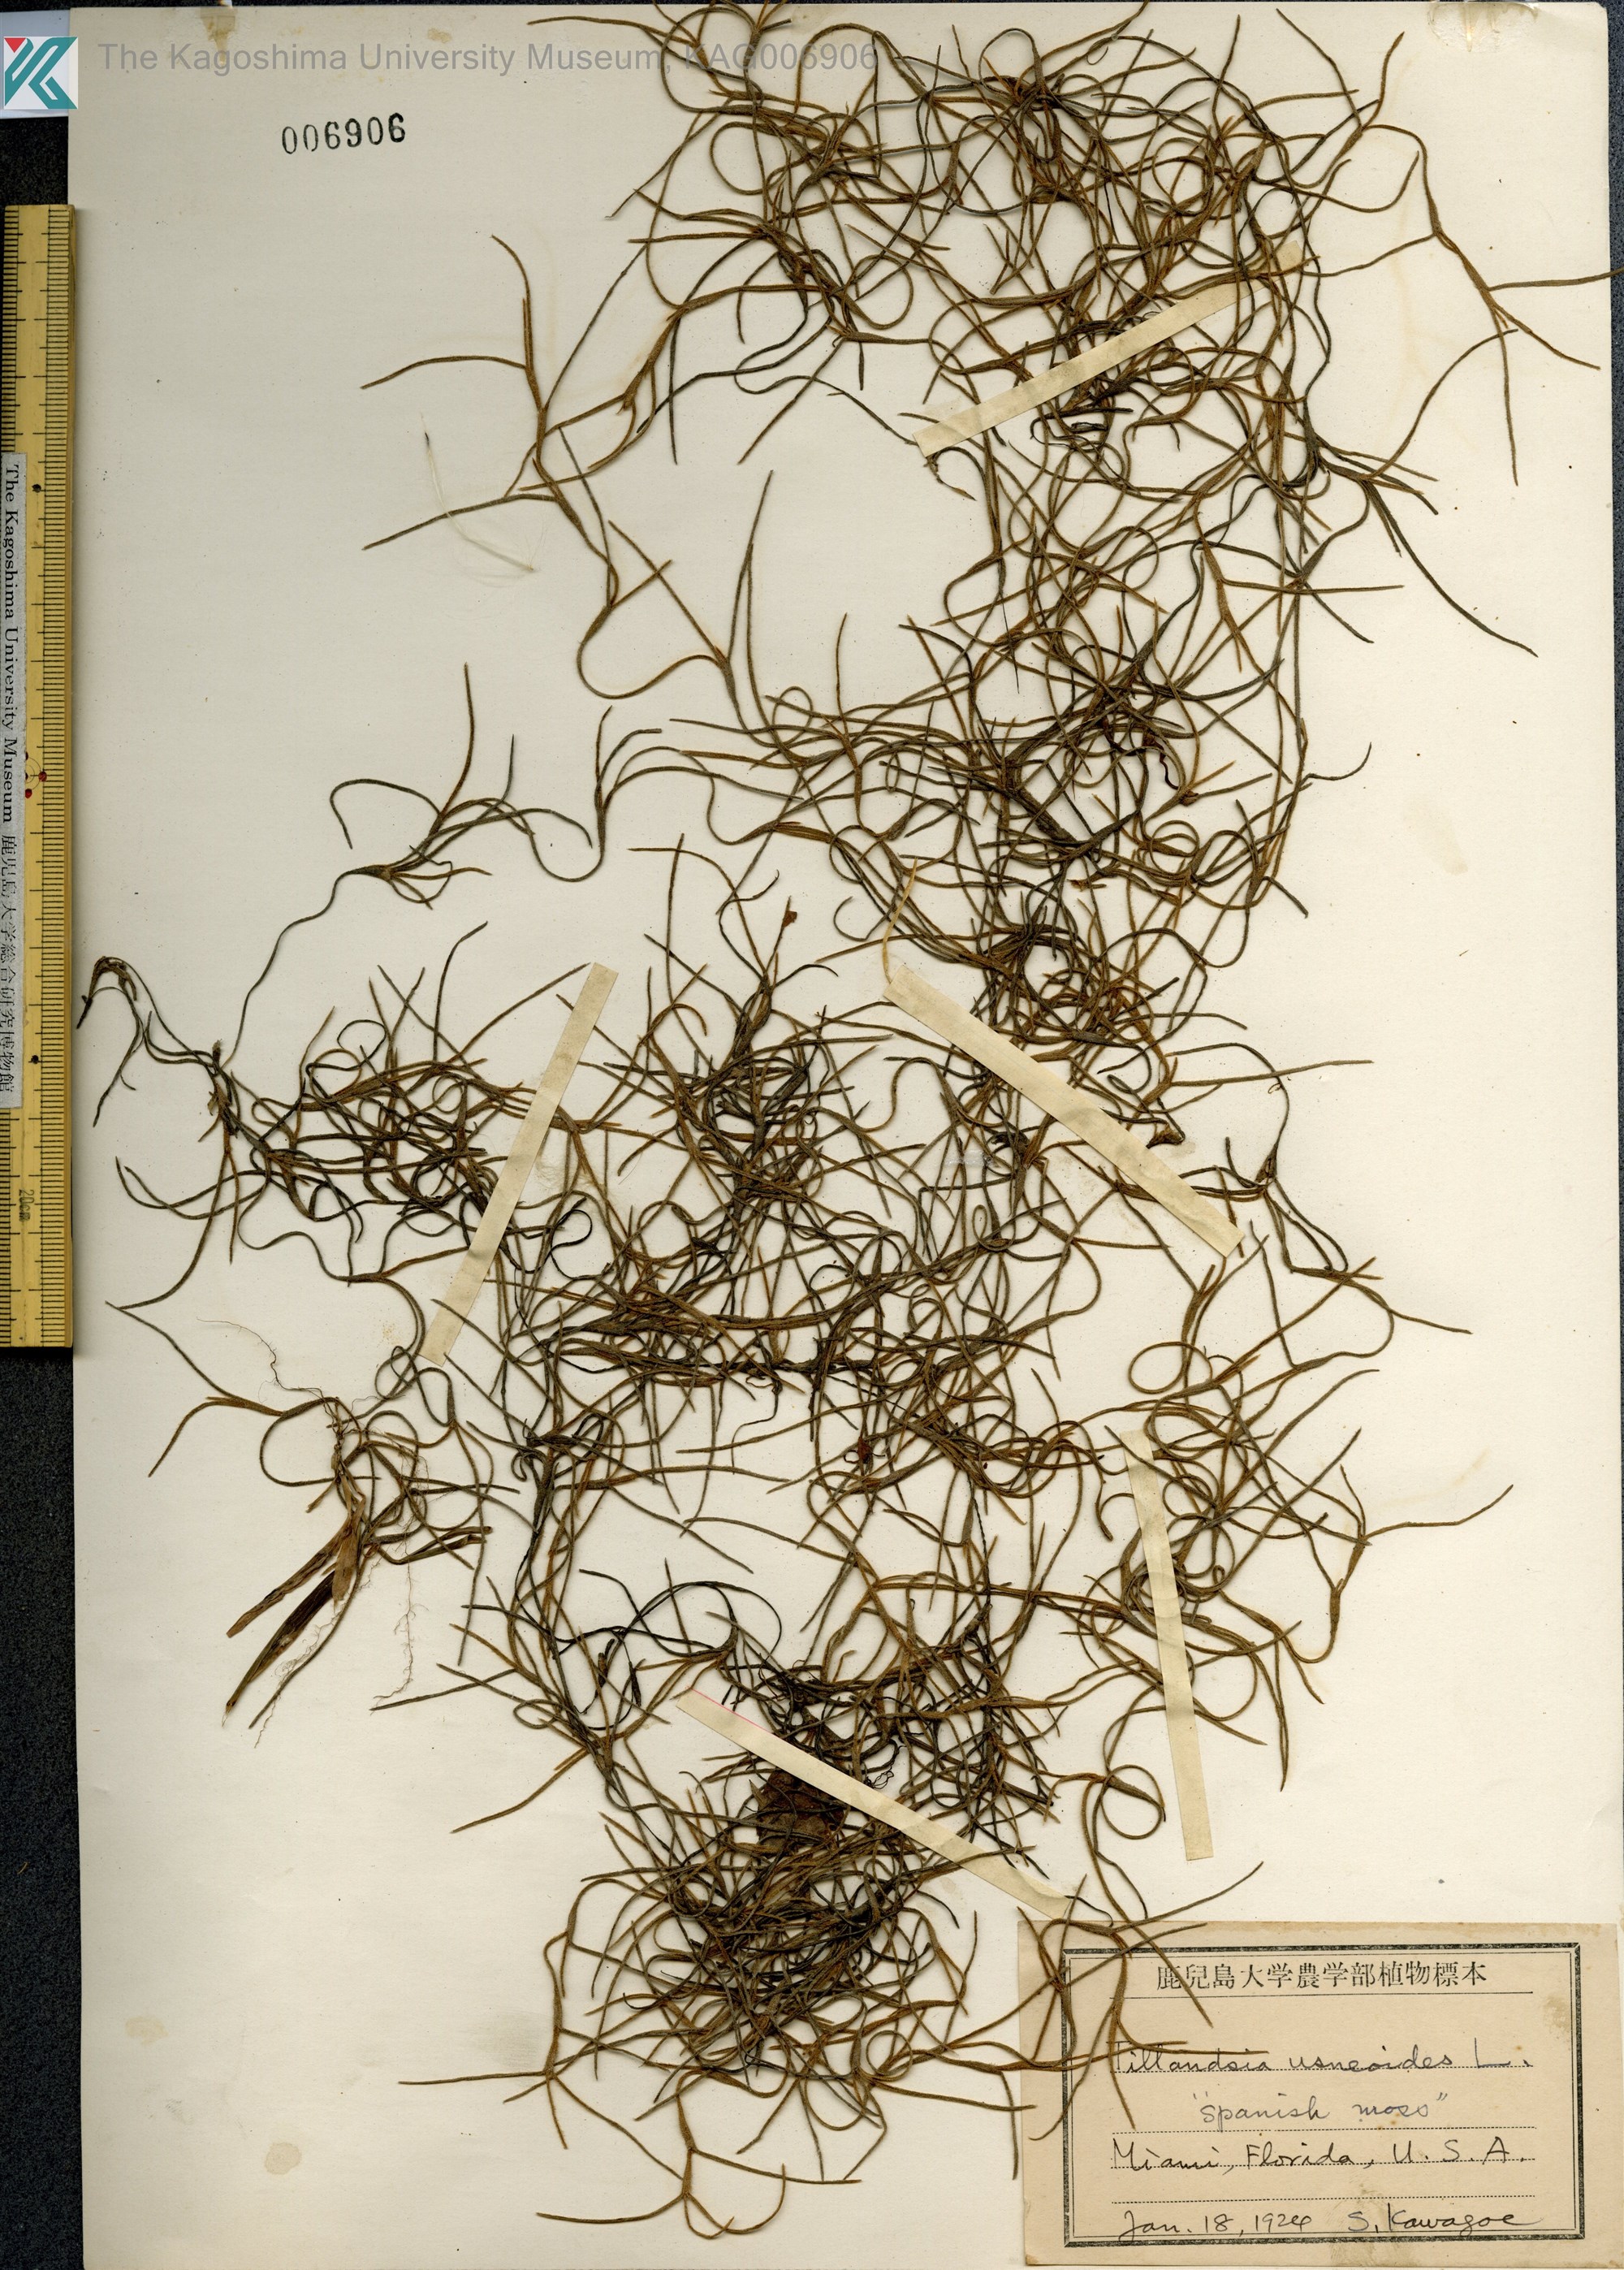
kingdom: Plantae
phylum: Tracheophyta
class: Liliopsida
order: Poales
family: Bromeliaceae
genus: Tillandsia
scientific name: Tillandsia usneoides
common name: Spanish moss
